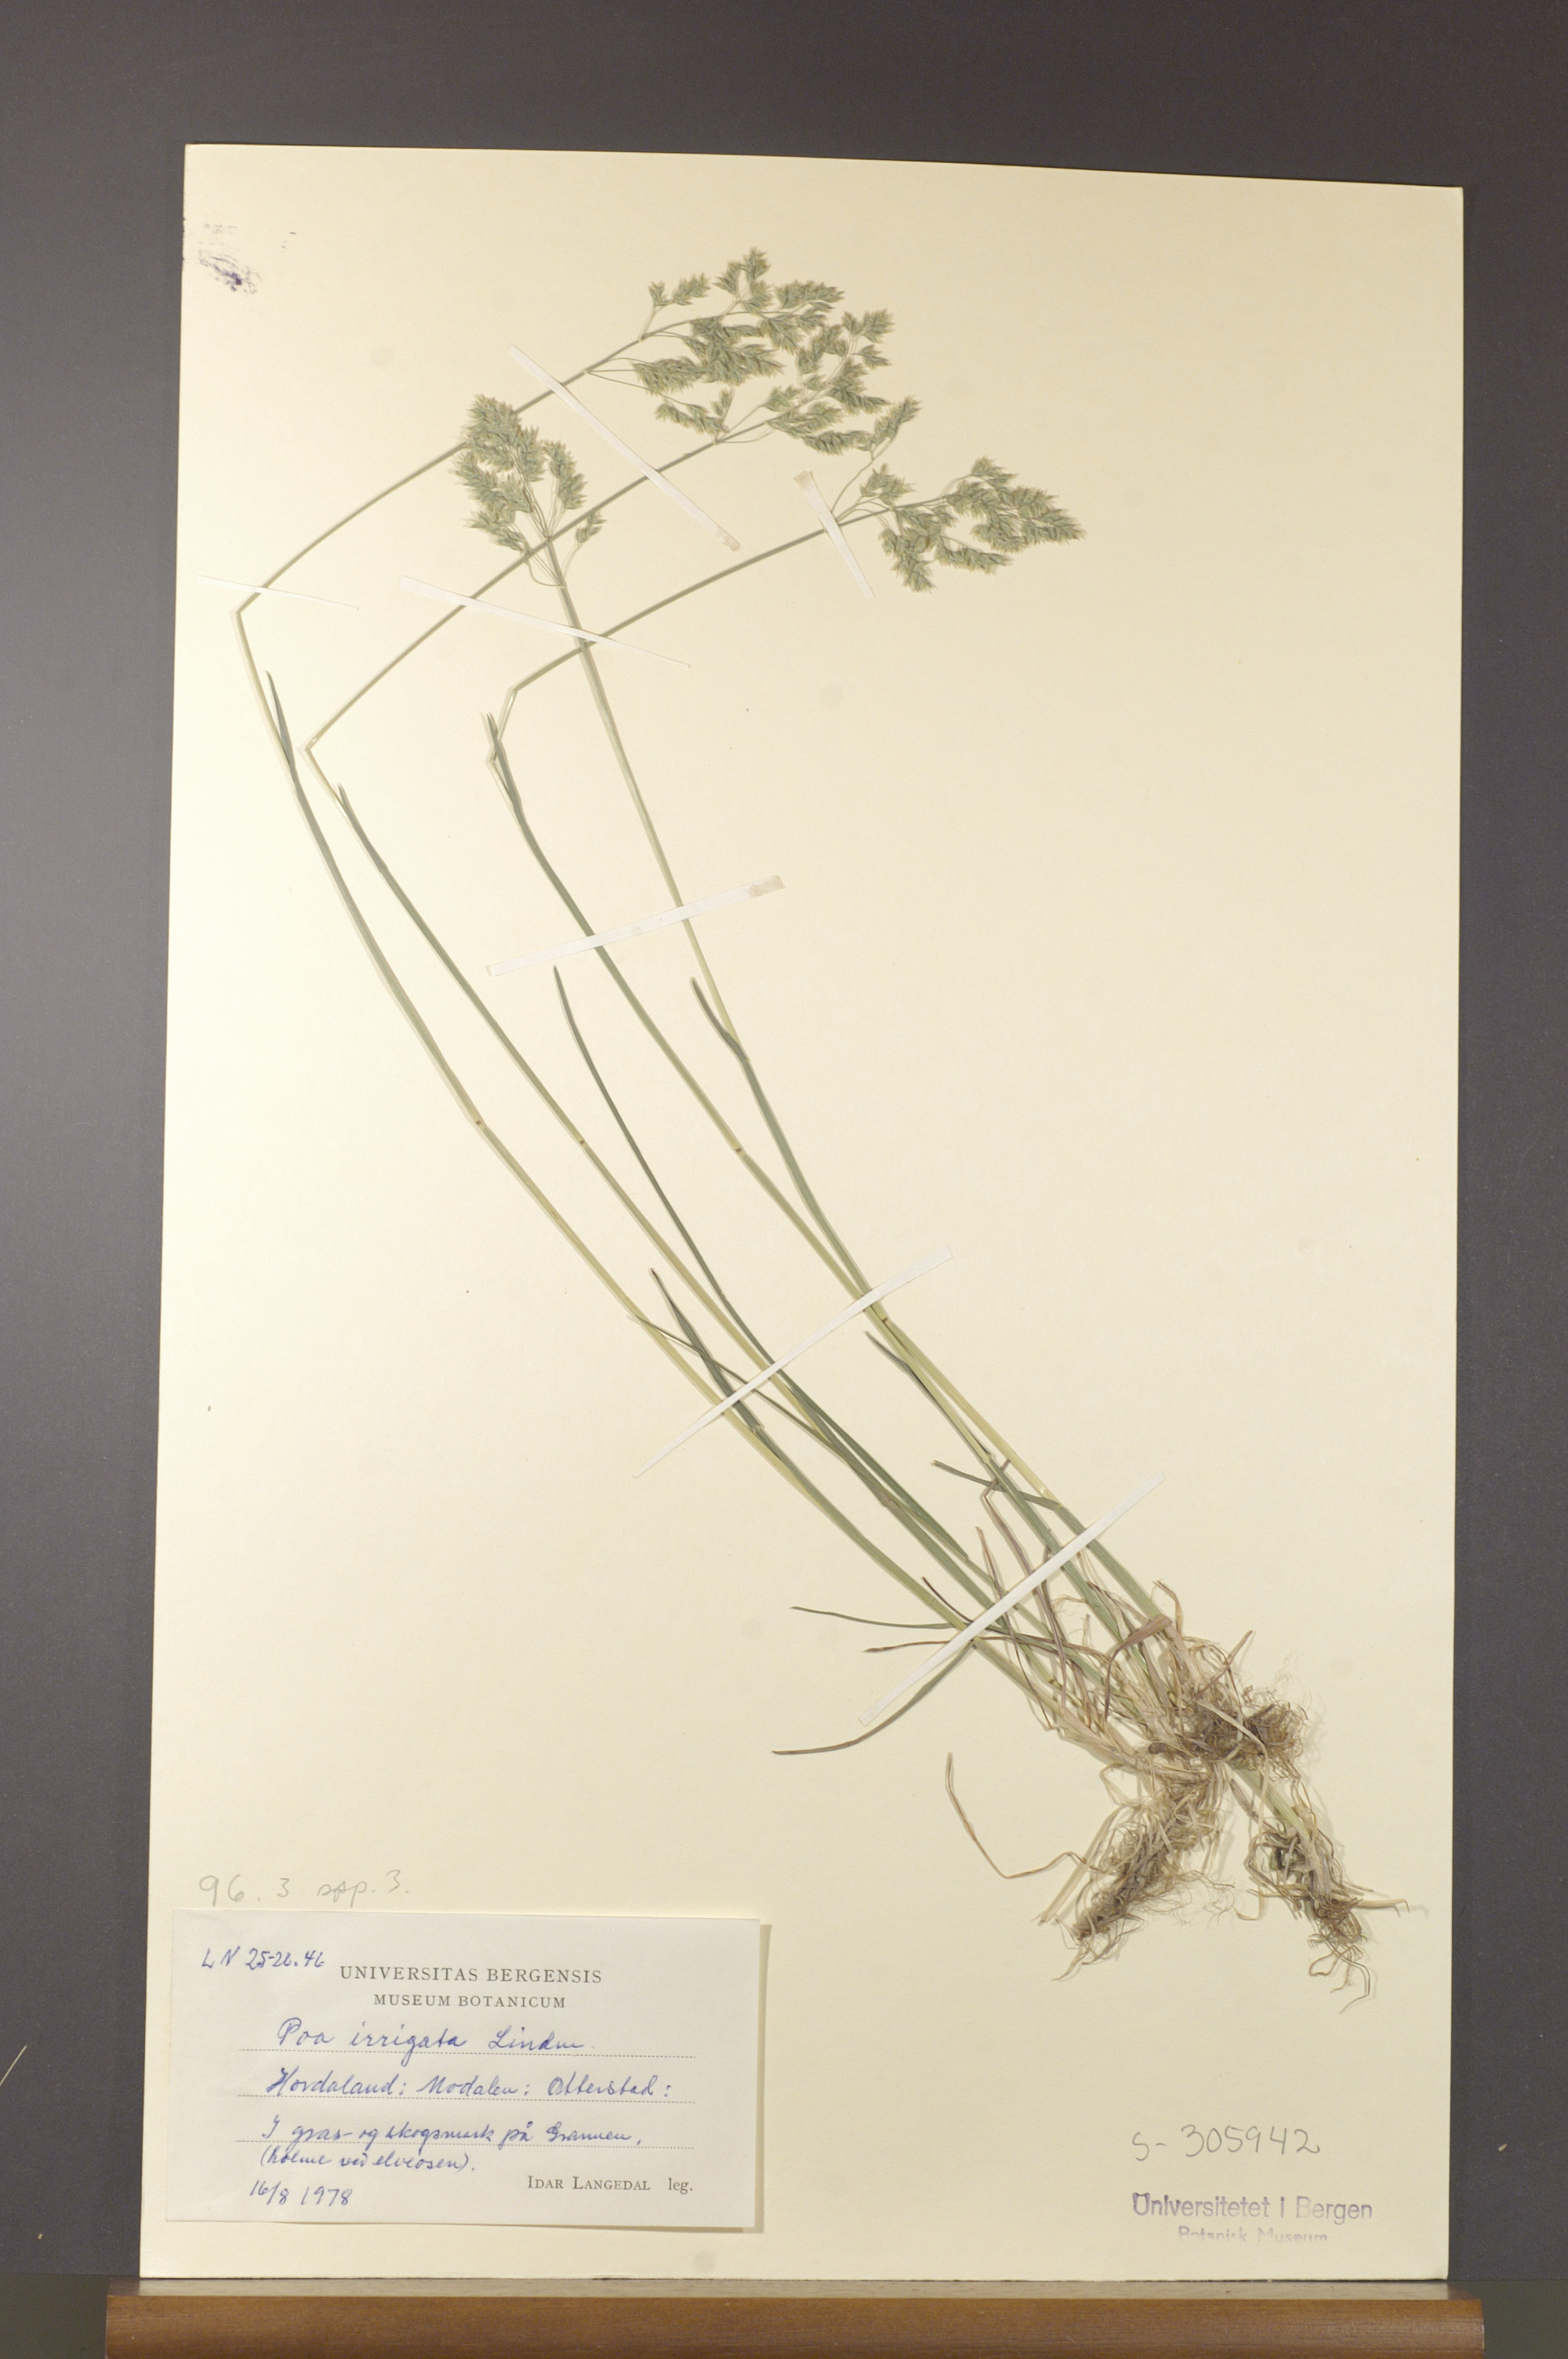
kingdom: Plantae
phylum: Tracheophyta
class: Liliopsida
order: Poales
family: Poaceae
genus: Poa
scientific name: Poa humilis
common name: Spreading meadow-grass
